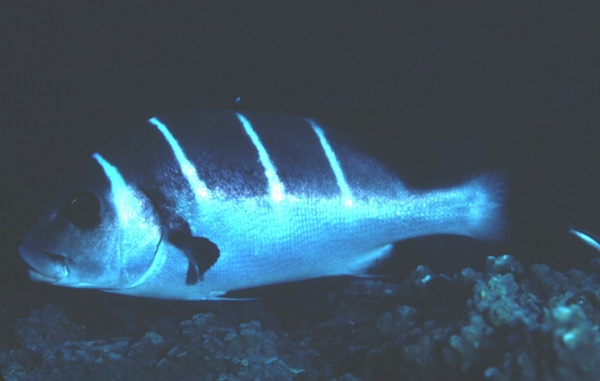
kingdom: Animalia
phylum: Chordata
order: Perciformes
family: Haemulidae
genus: Plectorhinchus
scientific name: Plectorhinchus playfairi
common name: Whitebarred rubberlip
